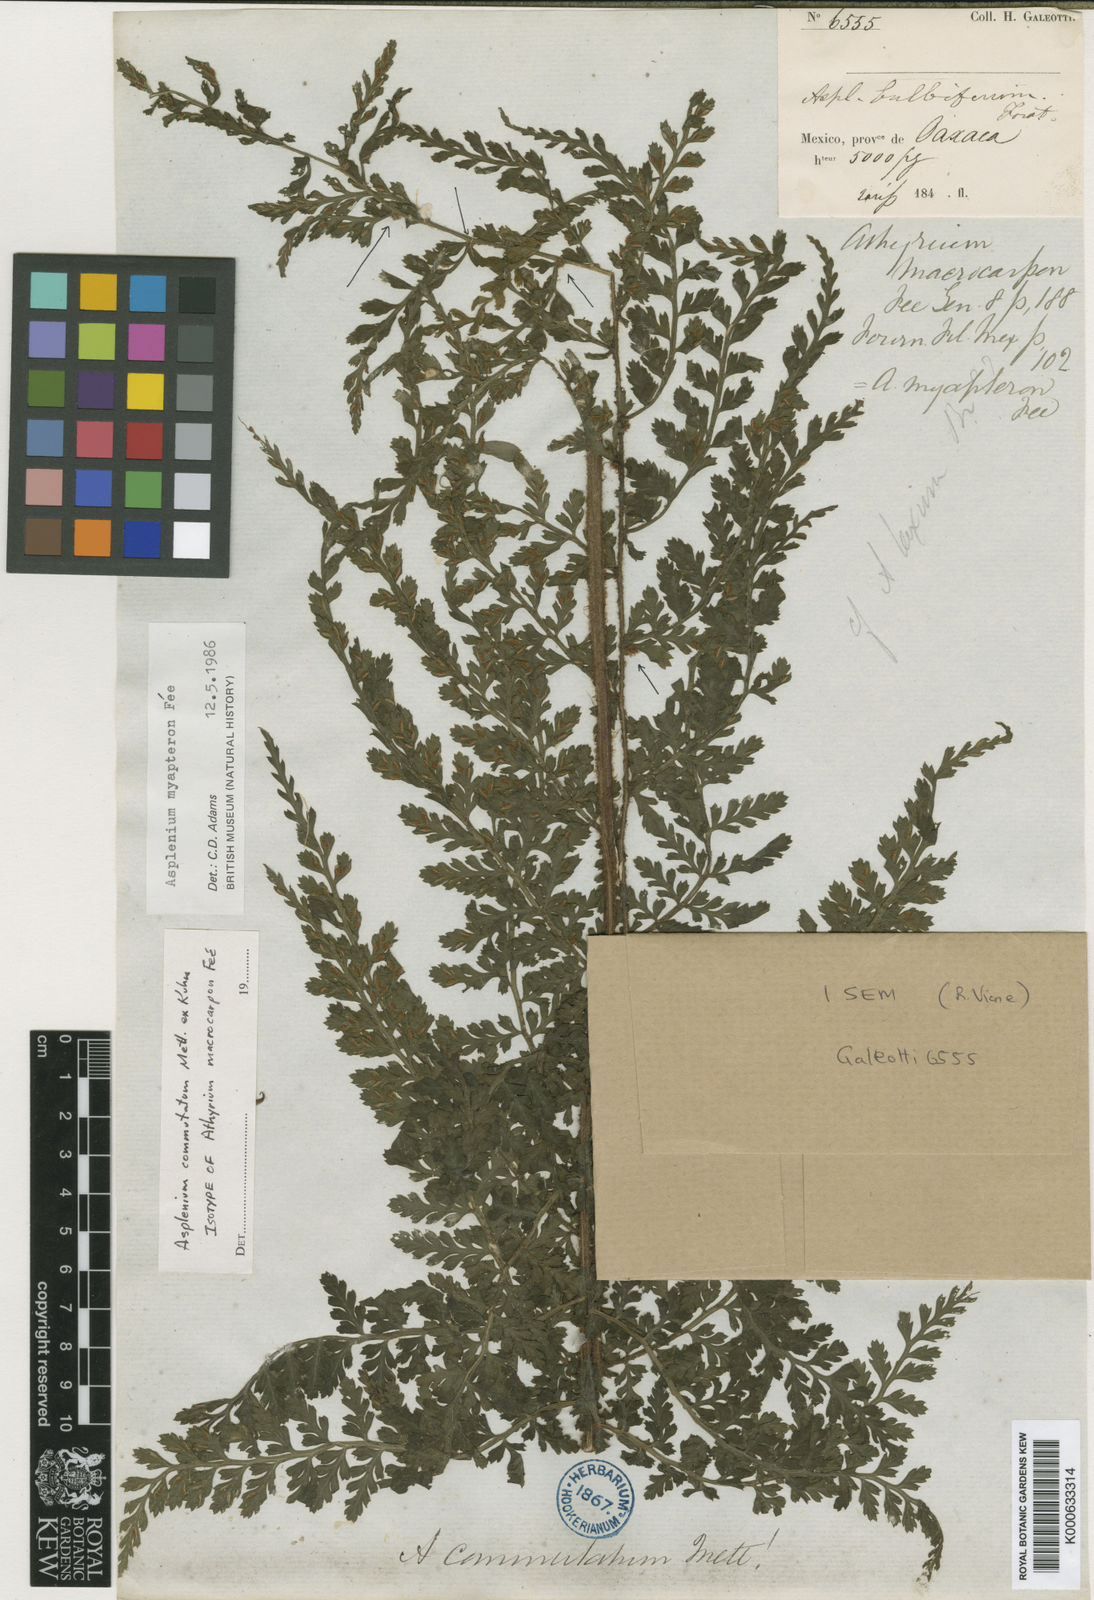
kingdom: Plantae
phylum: Tracheophyta
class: Polypodiopsida
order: Polypodiales
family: Aspleniaceae
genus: Asplenium
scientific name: Asplenium blepharophorum
